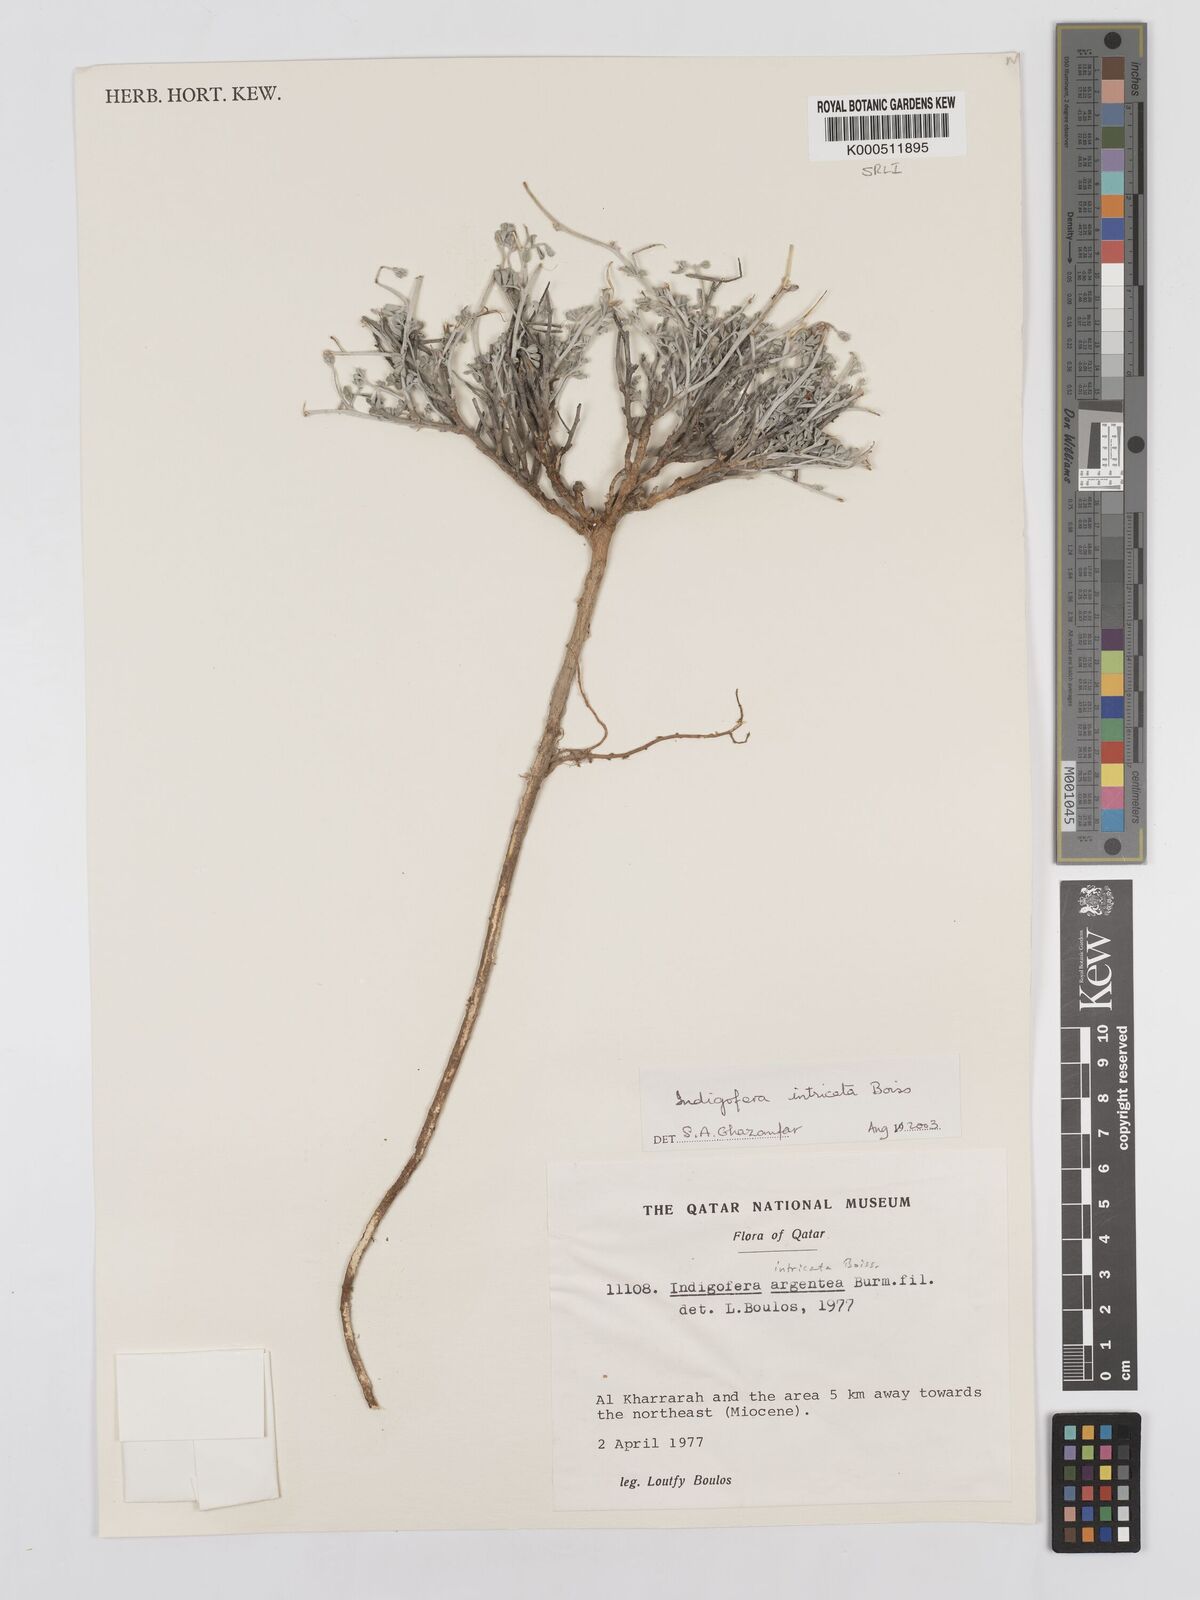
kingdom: Plantae
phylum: Tracheophyta
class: Magnoliopsida
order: Fabales
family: Fabaceae
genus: Indigofera
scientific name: Indigofera intricata
